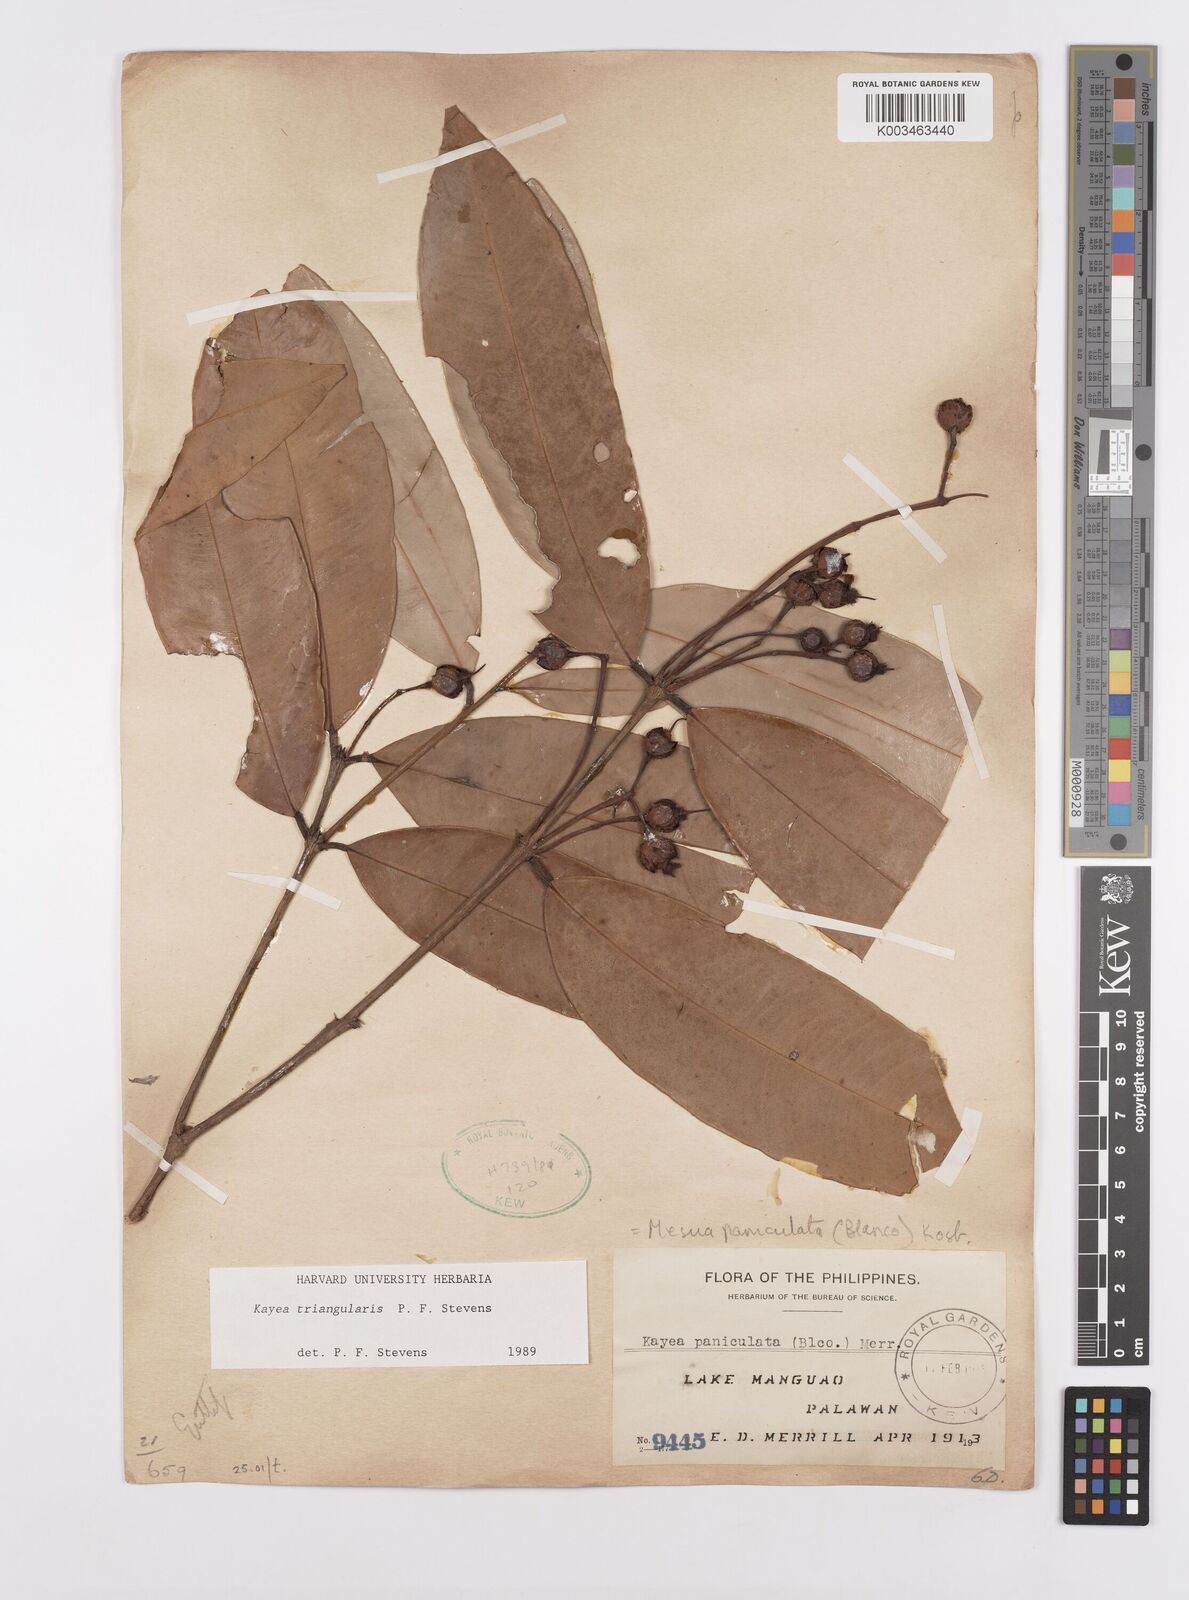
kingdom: Plantae
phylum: Tracheophyta
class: Magnoliopsida
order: Malpighiales
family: Calophyllaceae
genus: Kayea
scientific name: Kayea
